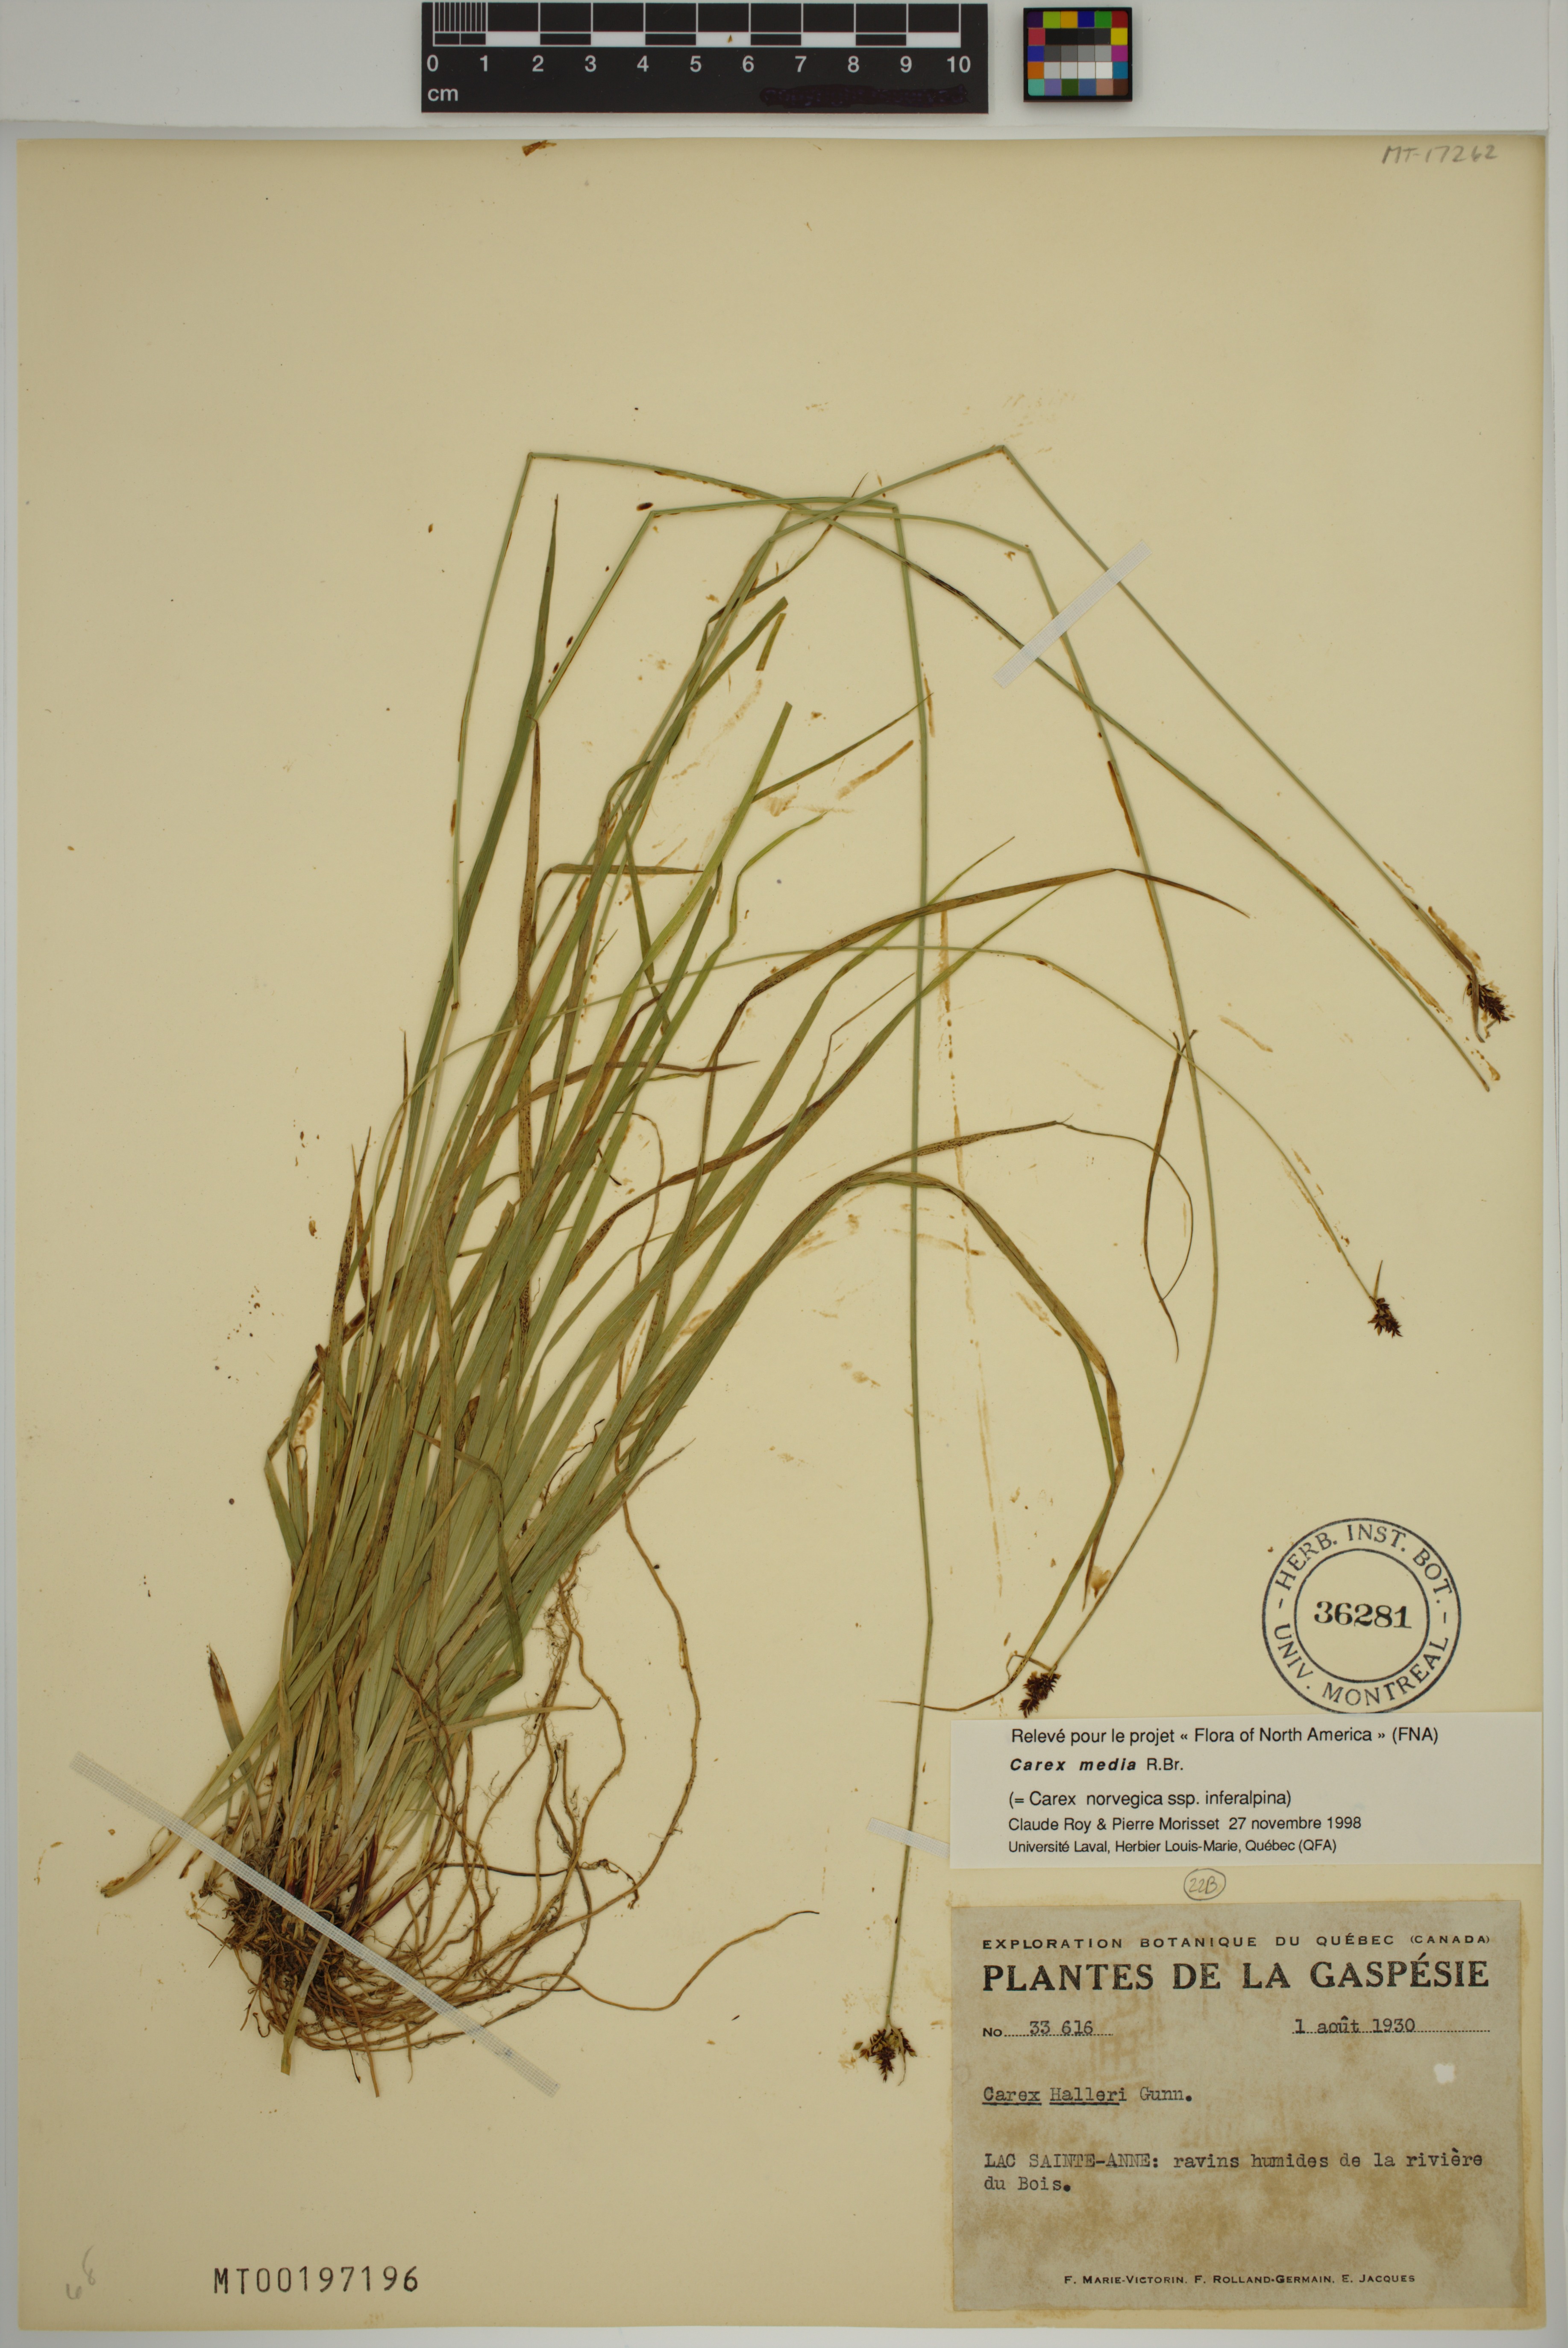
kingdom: Plantae
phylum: Tracheophyta
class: Liliopsida
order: Poales
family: Cyperaceae
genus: Carex
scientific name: Carex media
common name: Alpine sedge
